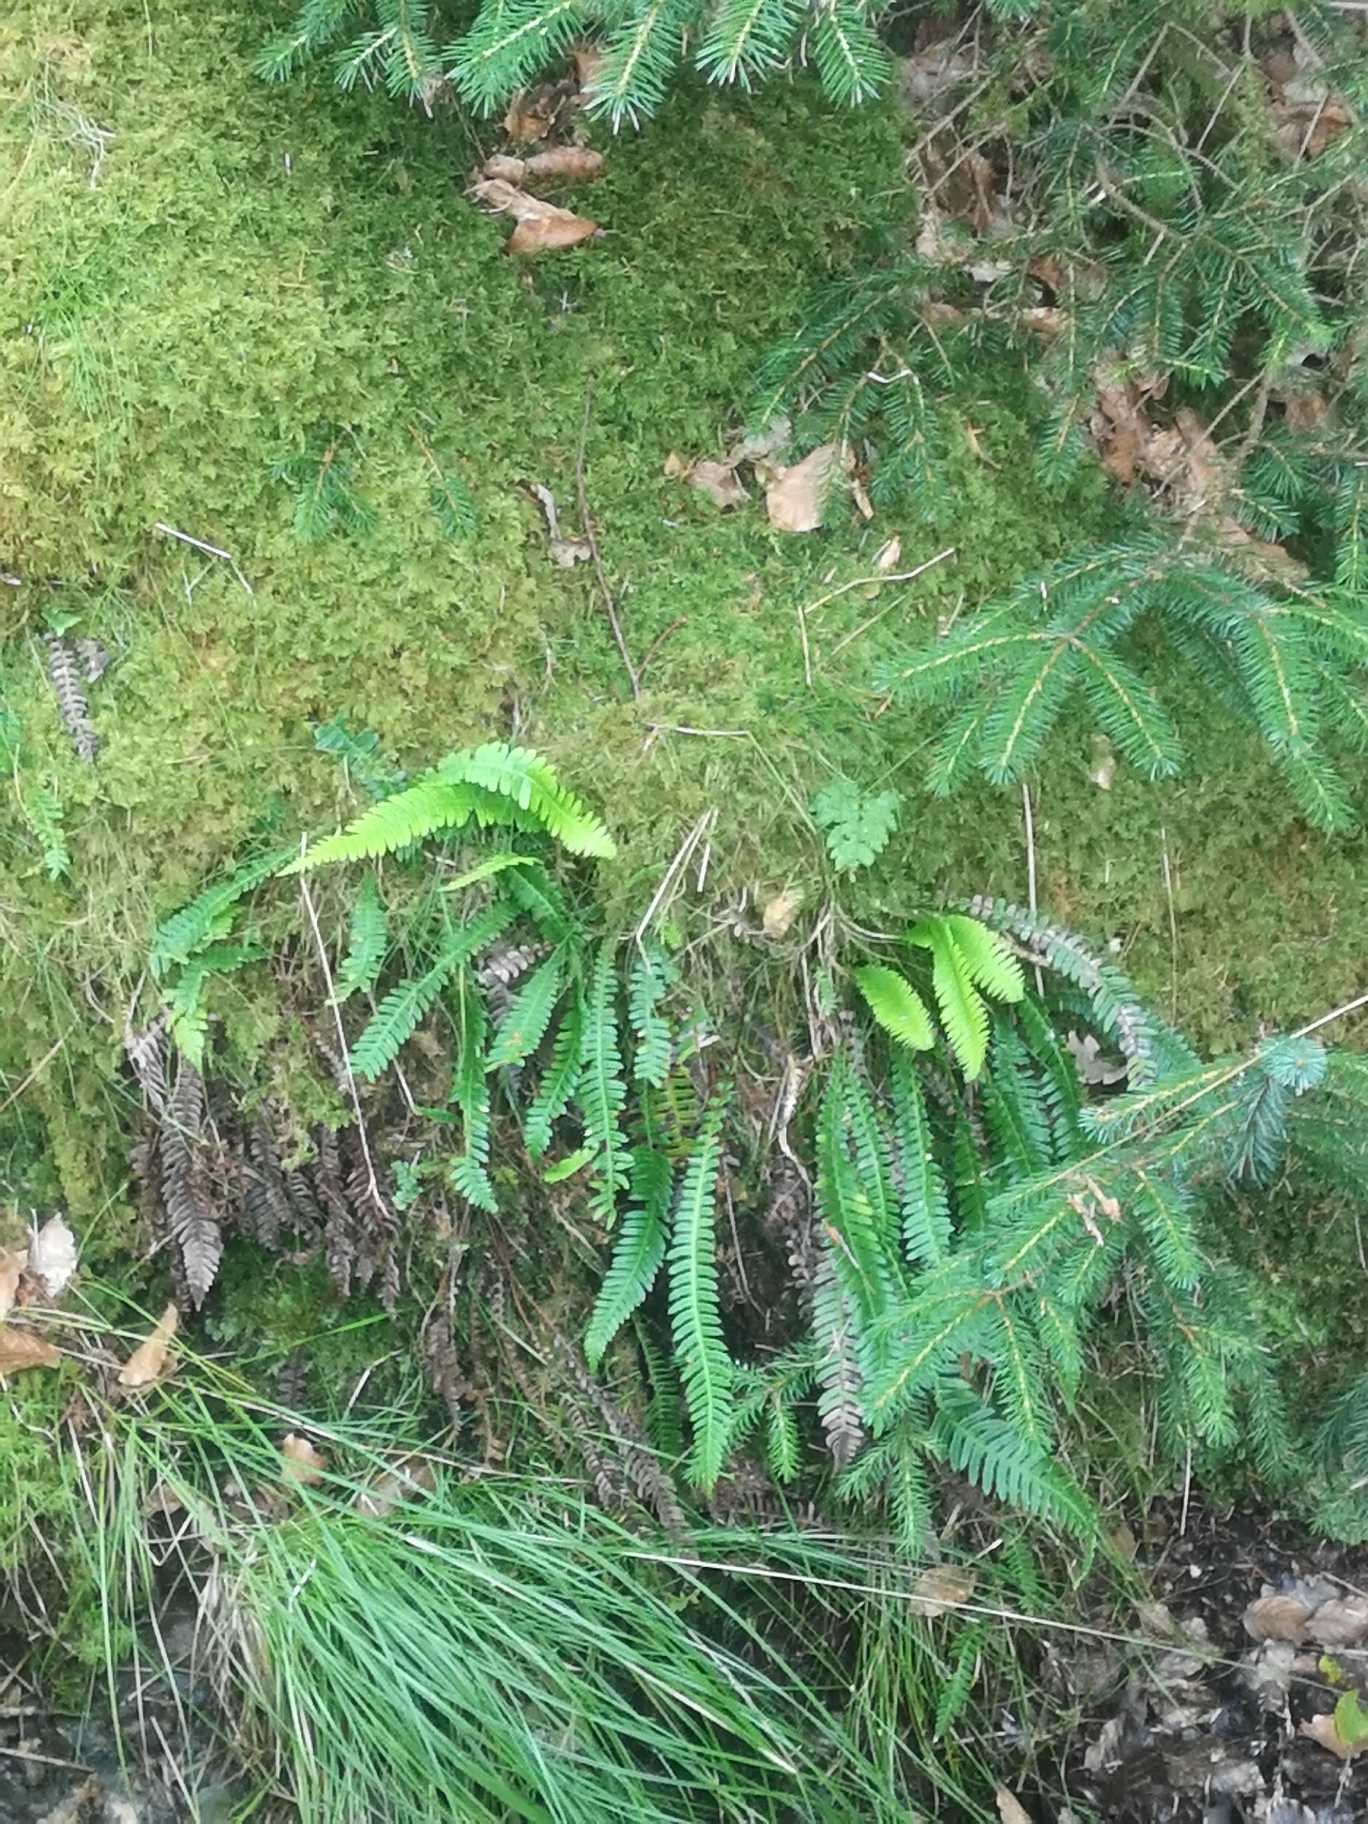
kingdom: Plantae
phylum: Tracheophyta
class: Polypodiopsida
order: Polypodiales
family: Blechnaceae
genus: Struthiopteris
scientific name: Struthiopteris spicant
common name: Kambregne
